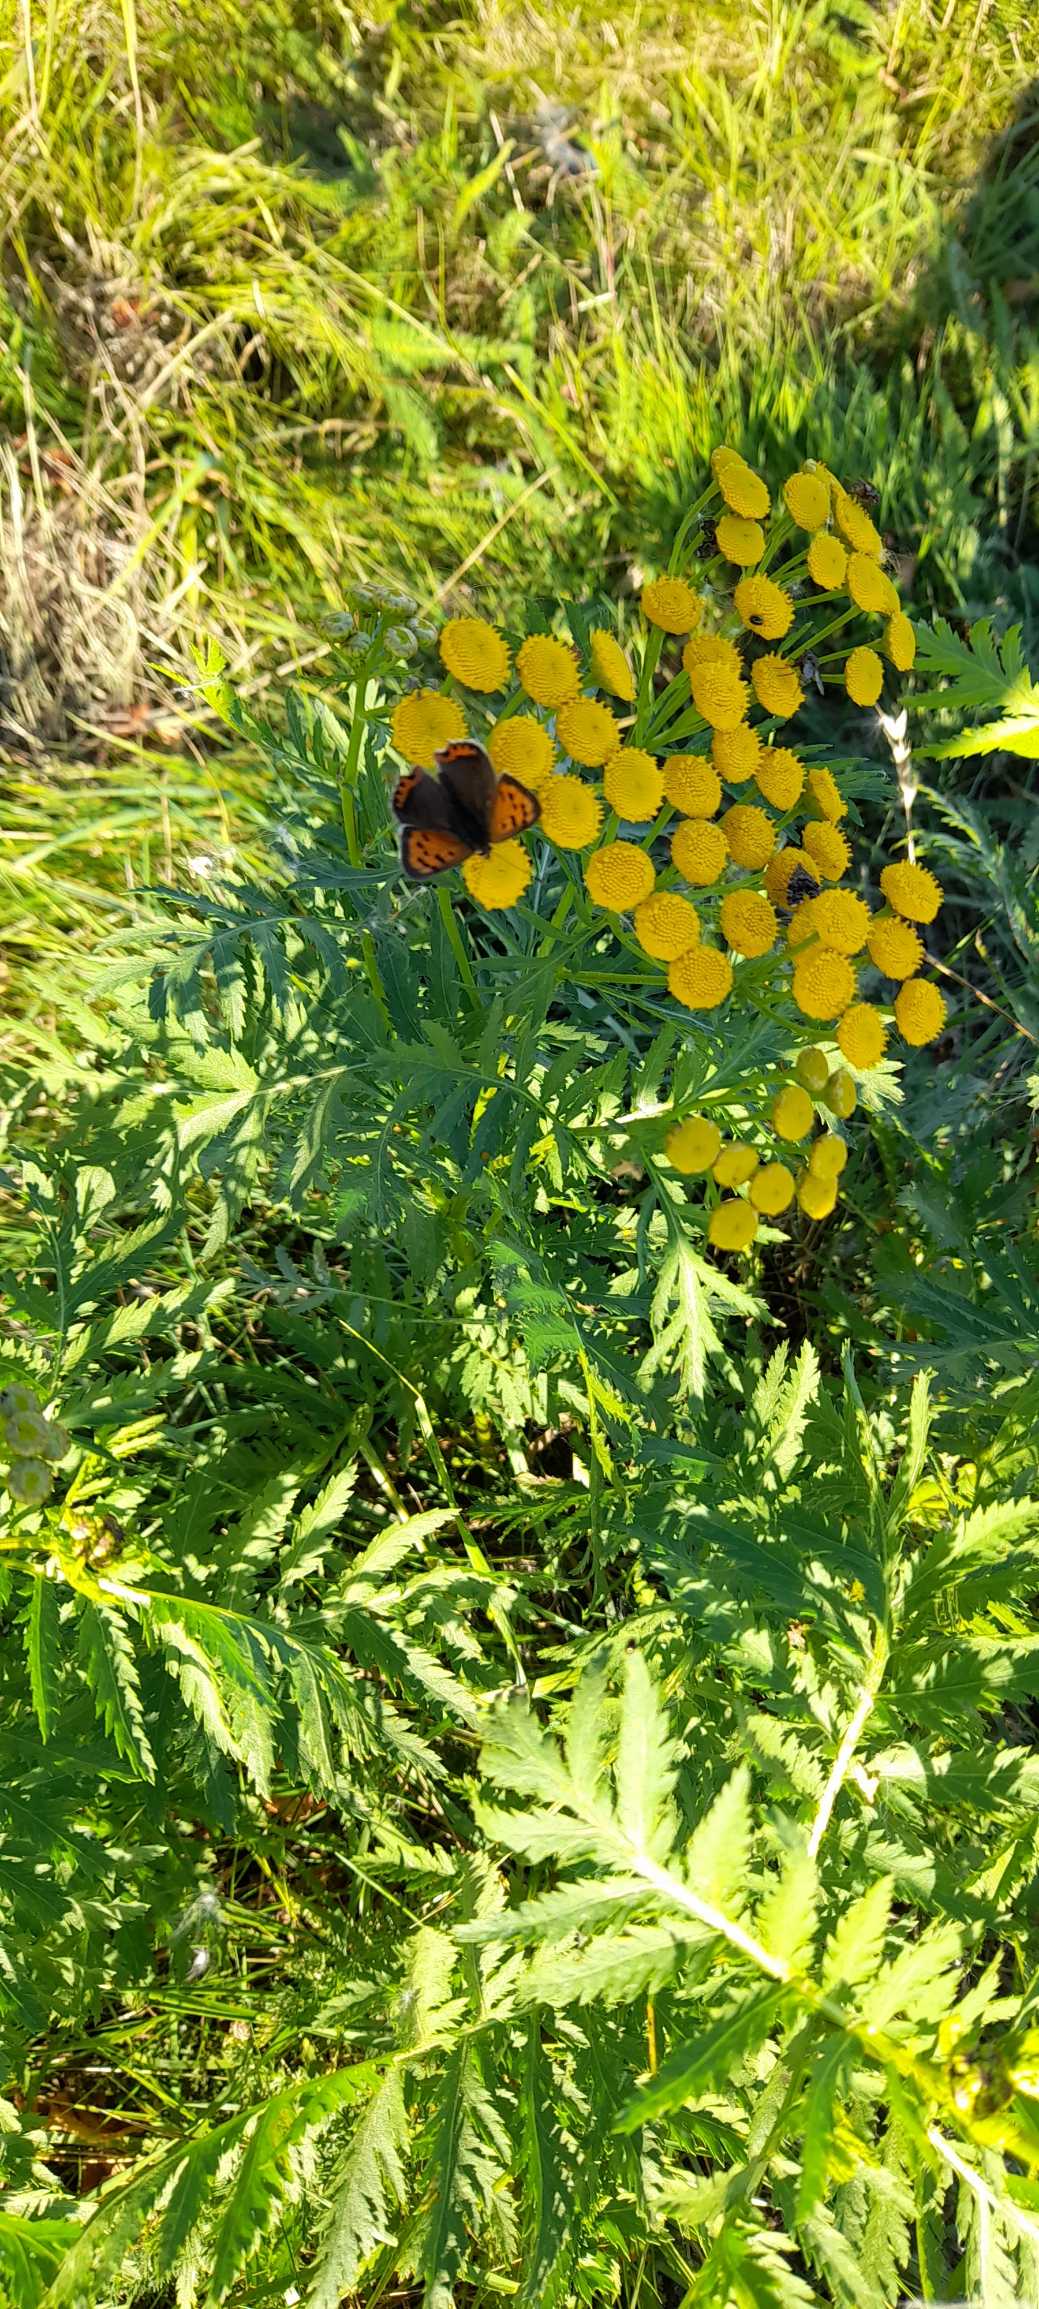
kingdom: Animalia
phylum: Arthropoda
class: Insecta
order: Lepidoptera
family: Lycaenidae
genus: Lycaena
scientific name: Lycaena phlaeas
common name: Lille ildfugl
